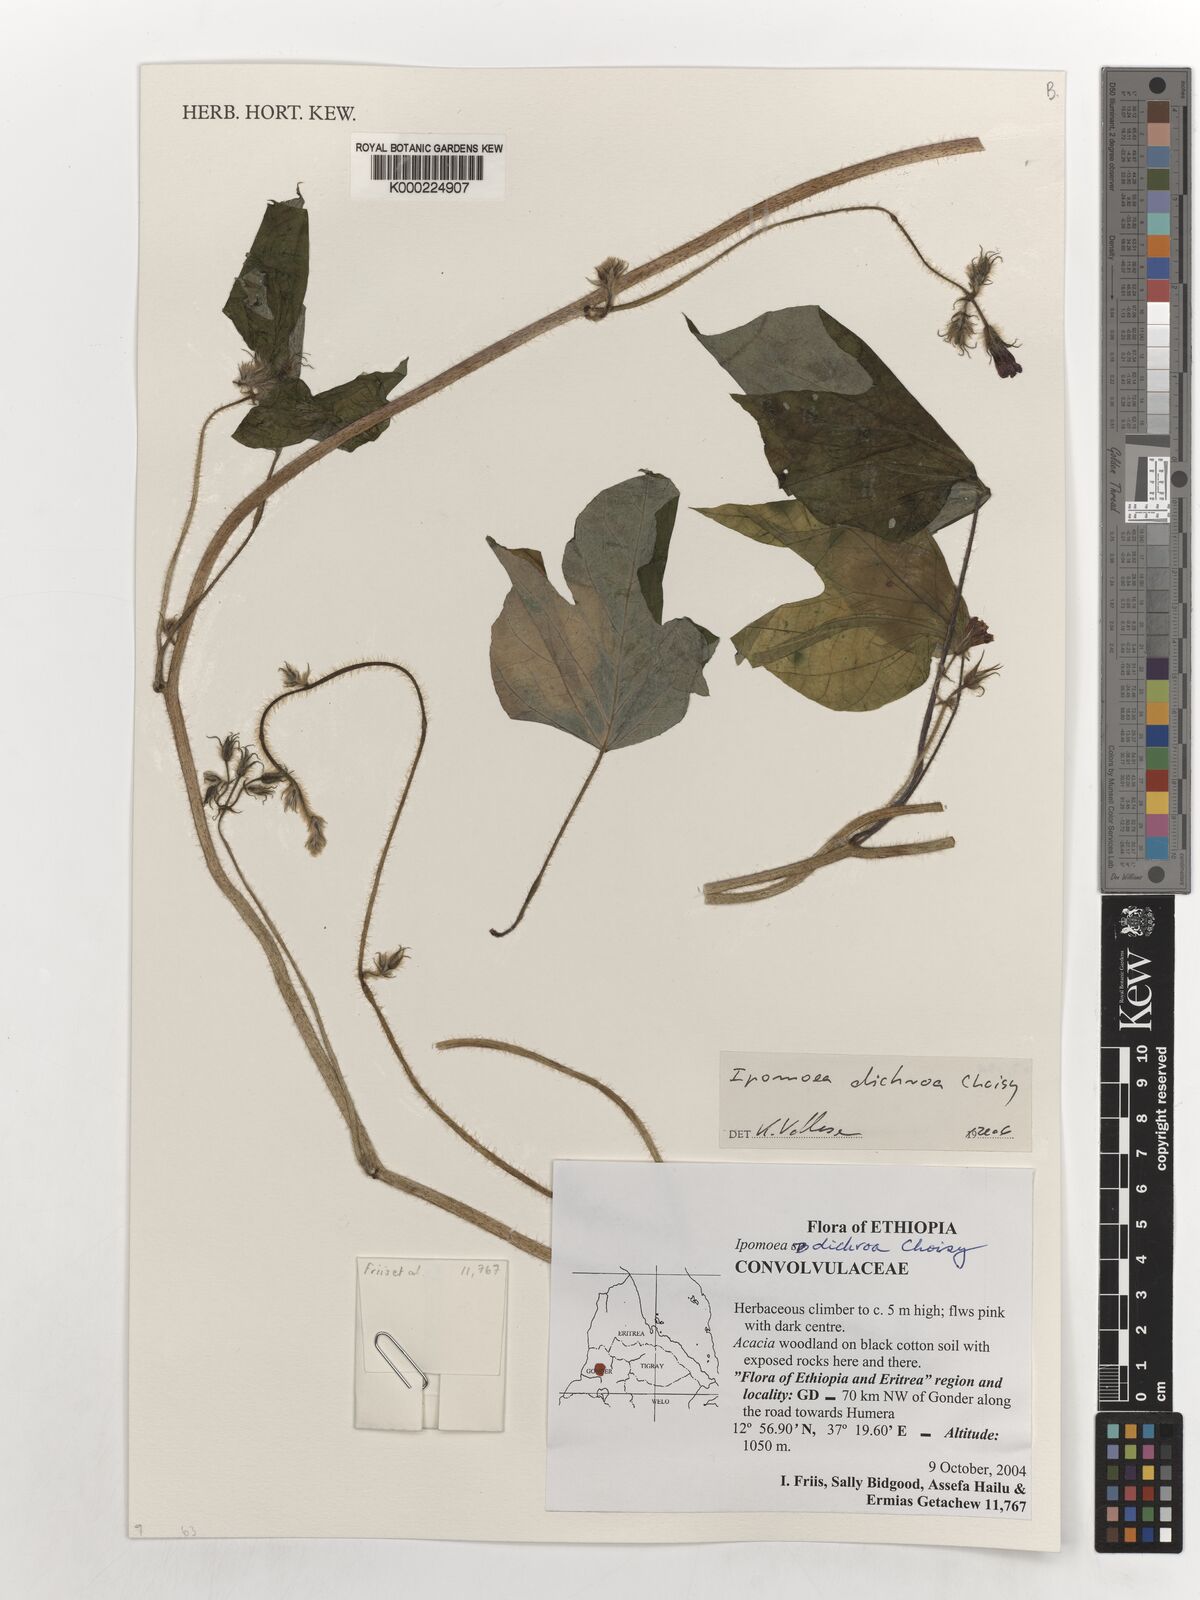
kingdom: Plantae
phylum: Tracheophyta
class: Magnoliopsida
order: Solanales
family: Convolvulaceae
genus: Erycibe
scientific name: Erycibe carrii
